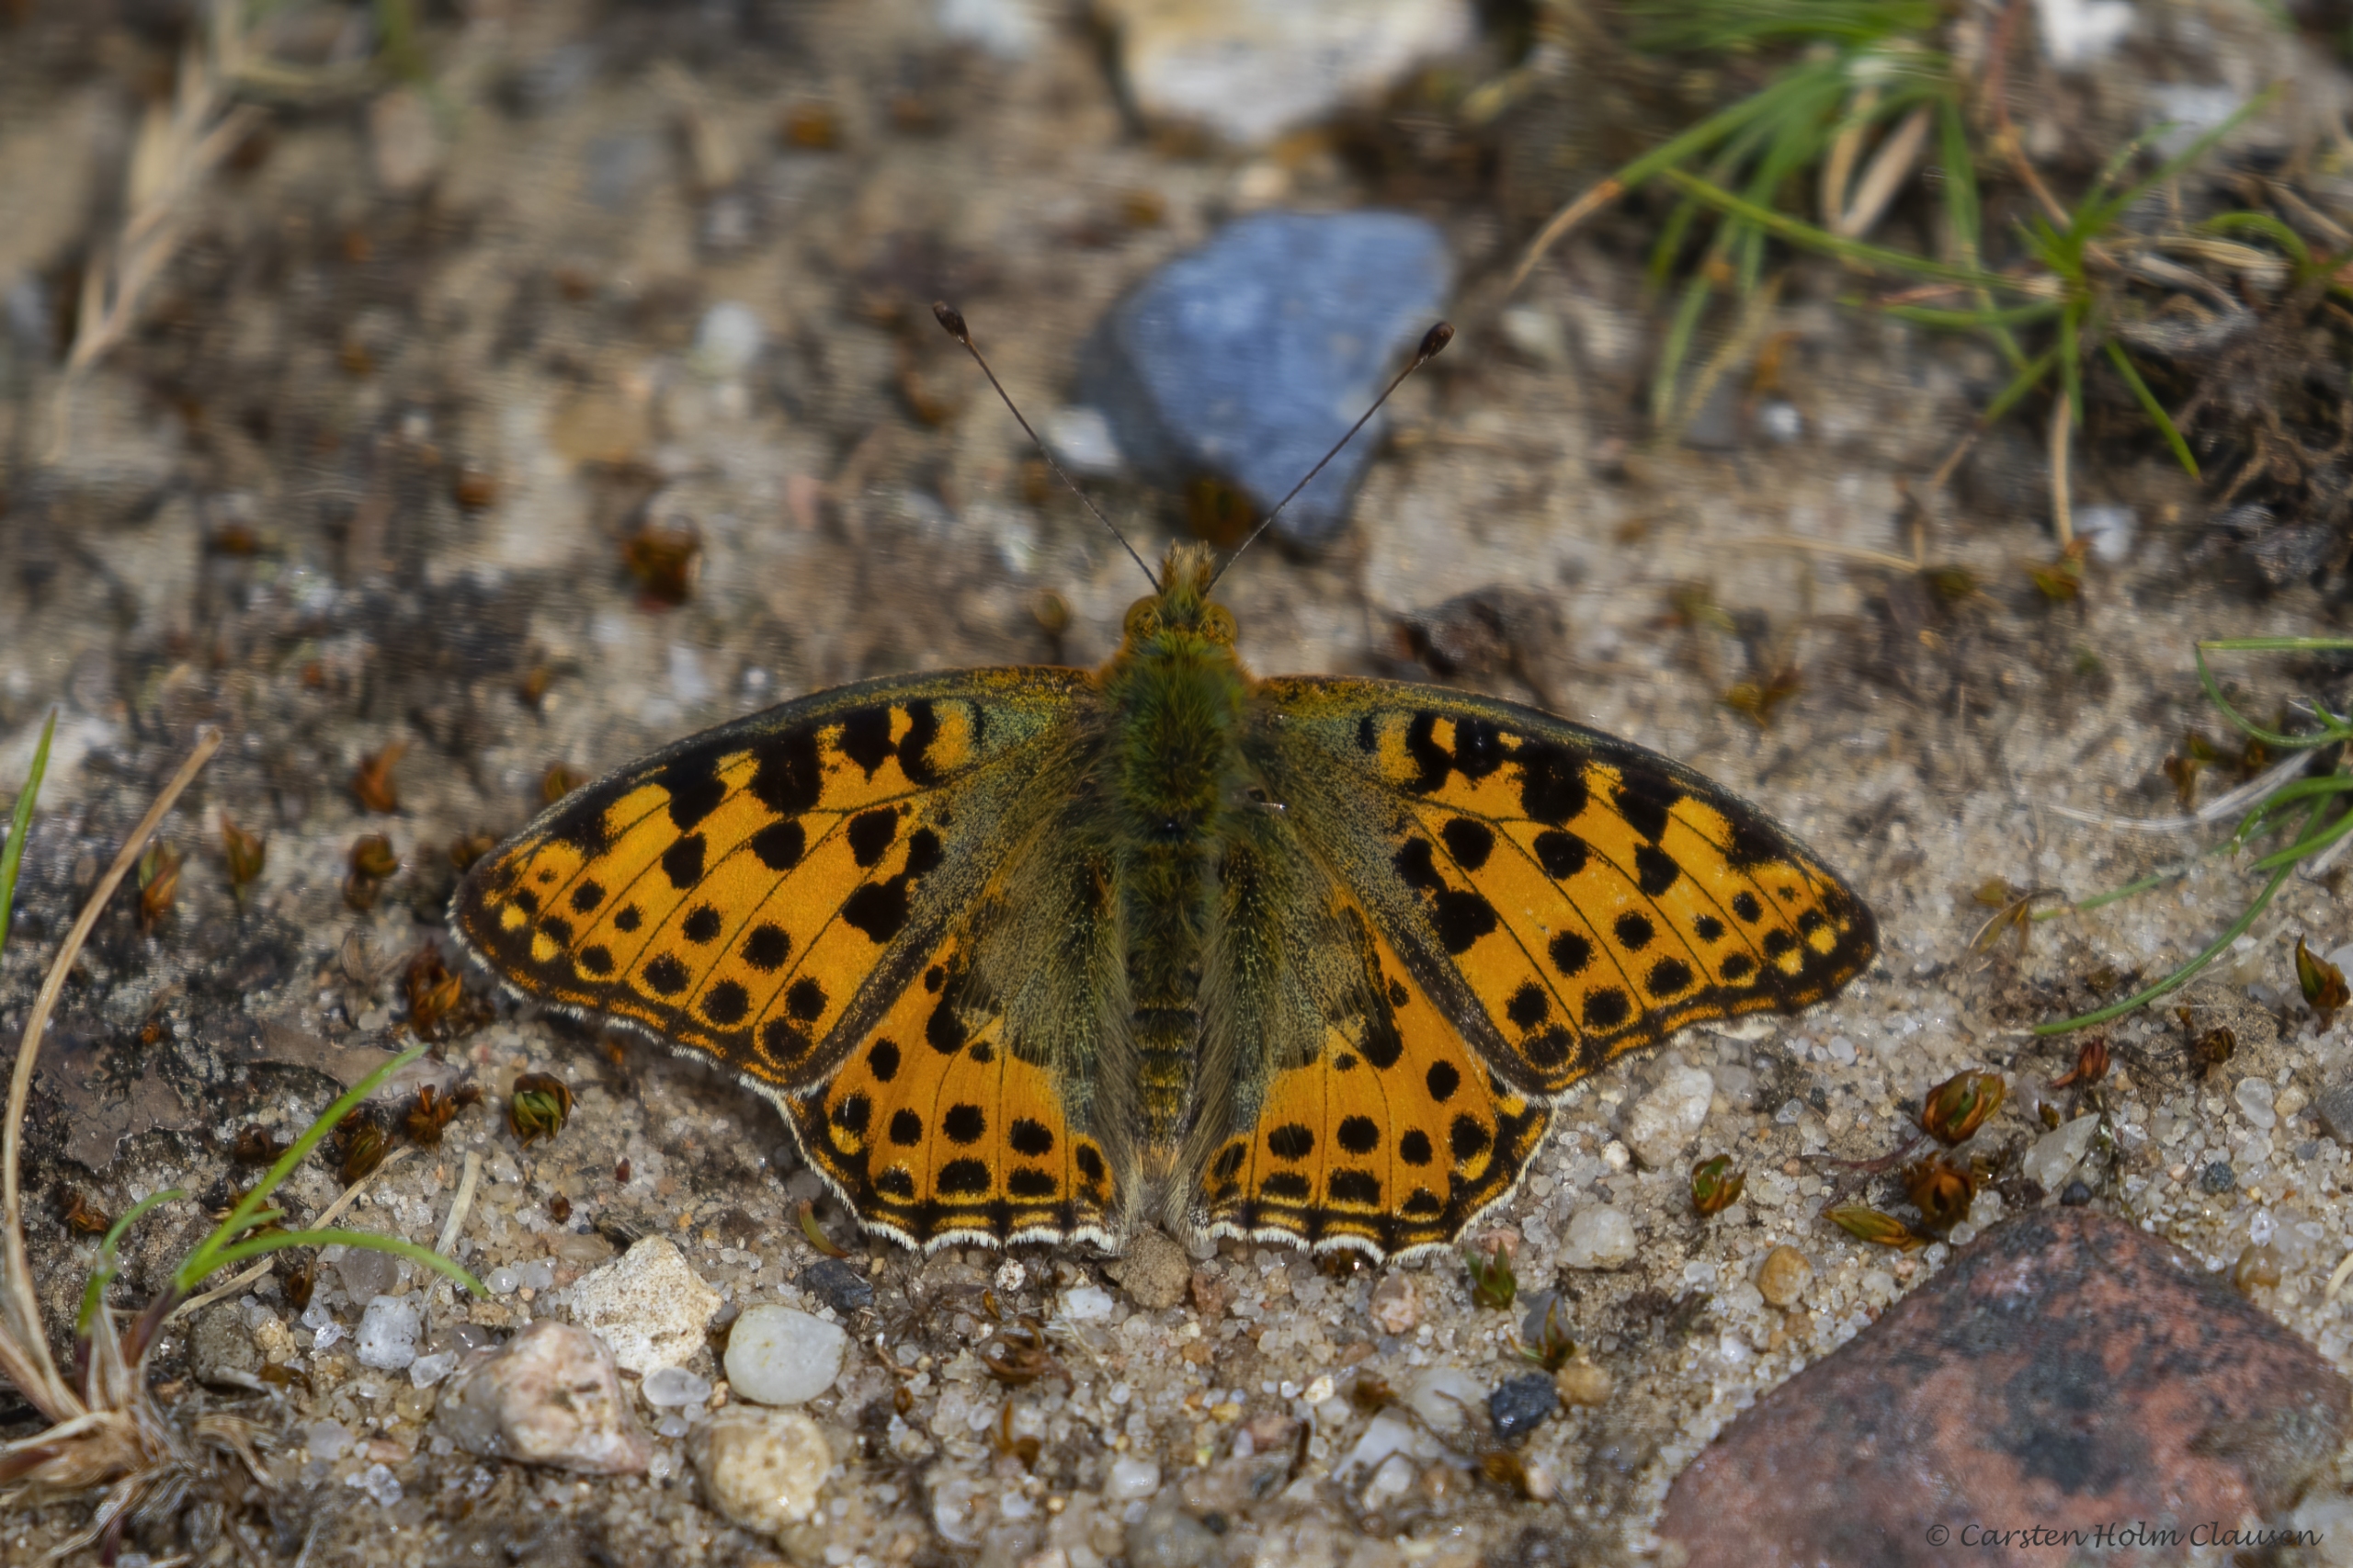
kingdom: Animalia
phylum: Arthropoda
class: Insecta
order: Lepidoptera
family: Nymphalidae
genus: Issoria
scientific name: Issoria lathonia
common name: Storplettet perlemorsommerfugl
